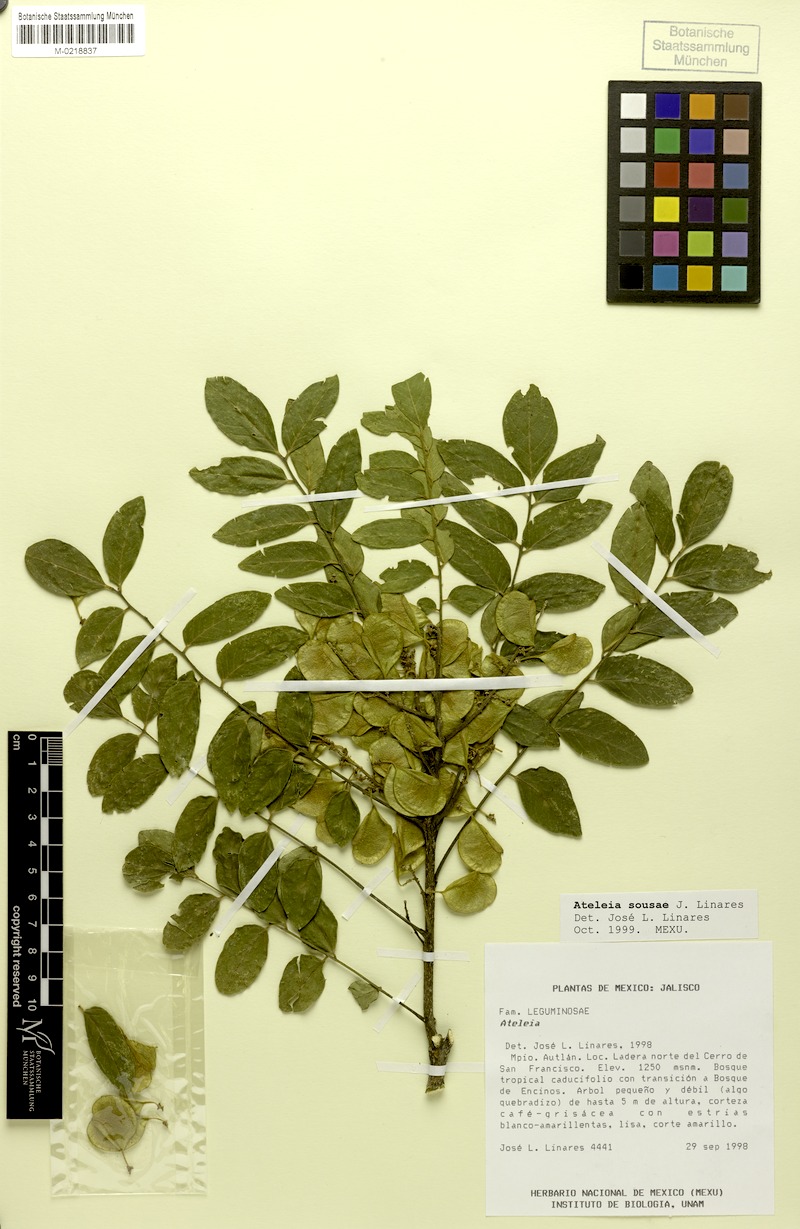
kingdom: Plantae
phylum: Tracheophyta
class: Magnoliopsida
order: Fabales
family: Fabaceae
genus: Ateleia
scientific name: Ateleia sousae
